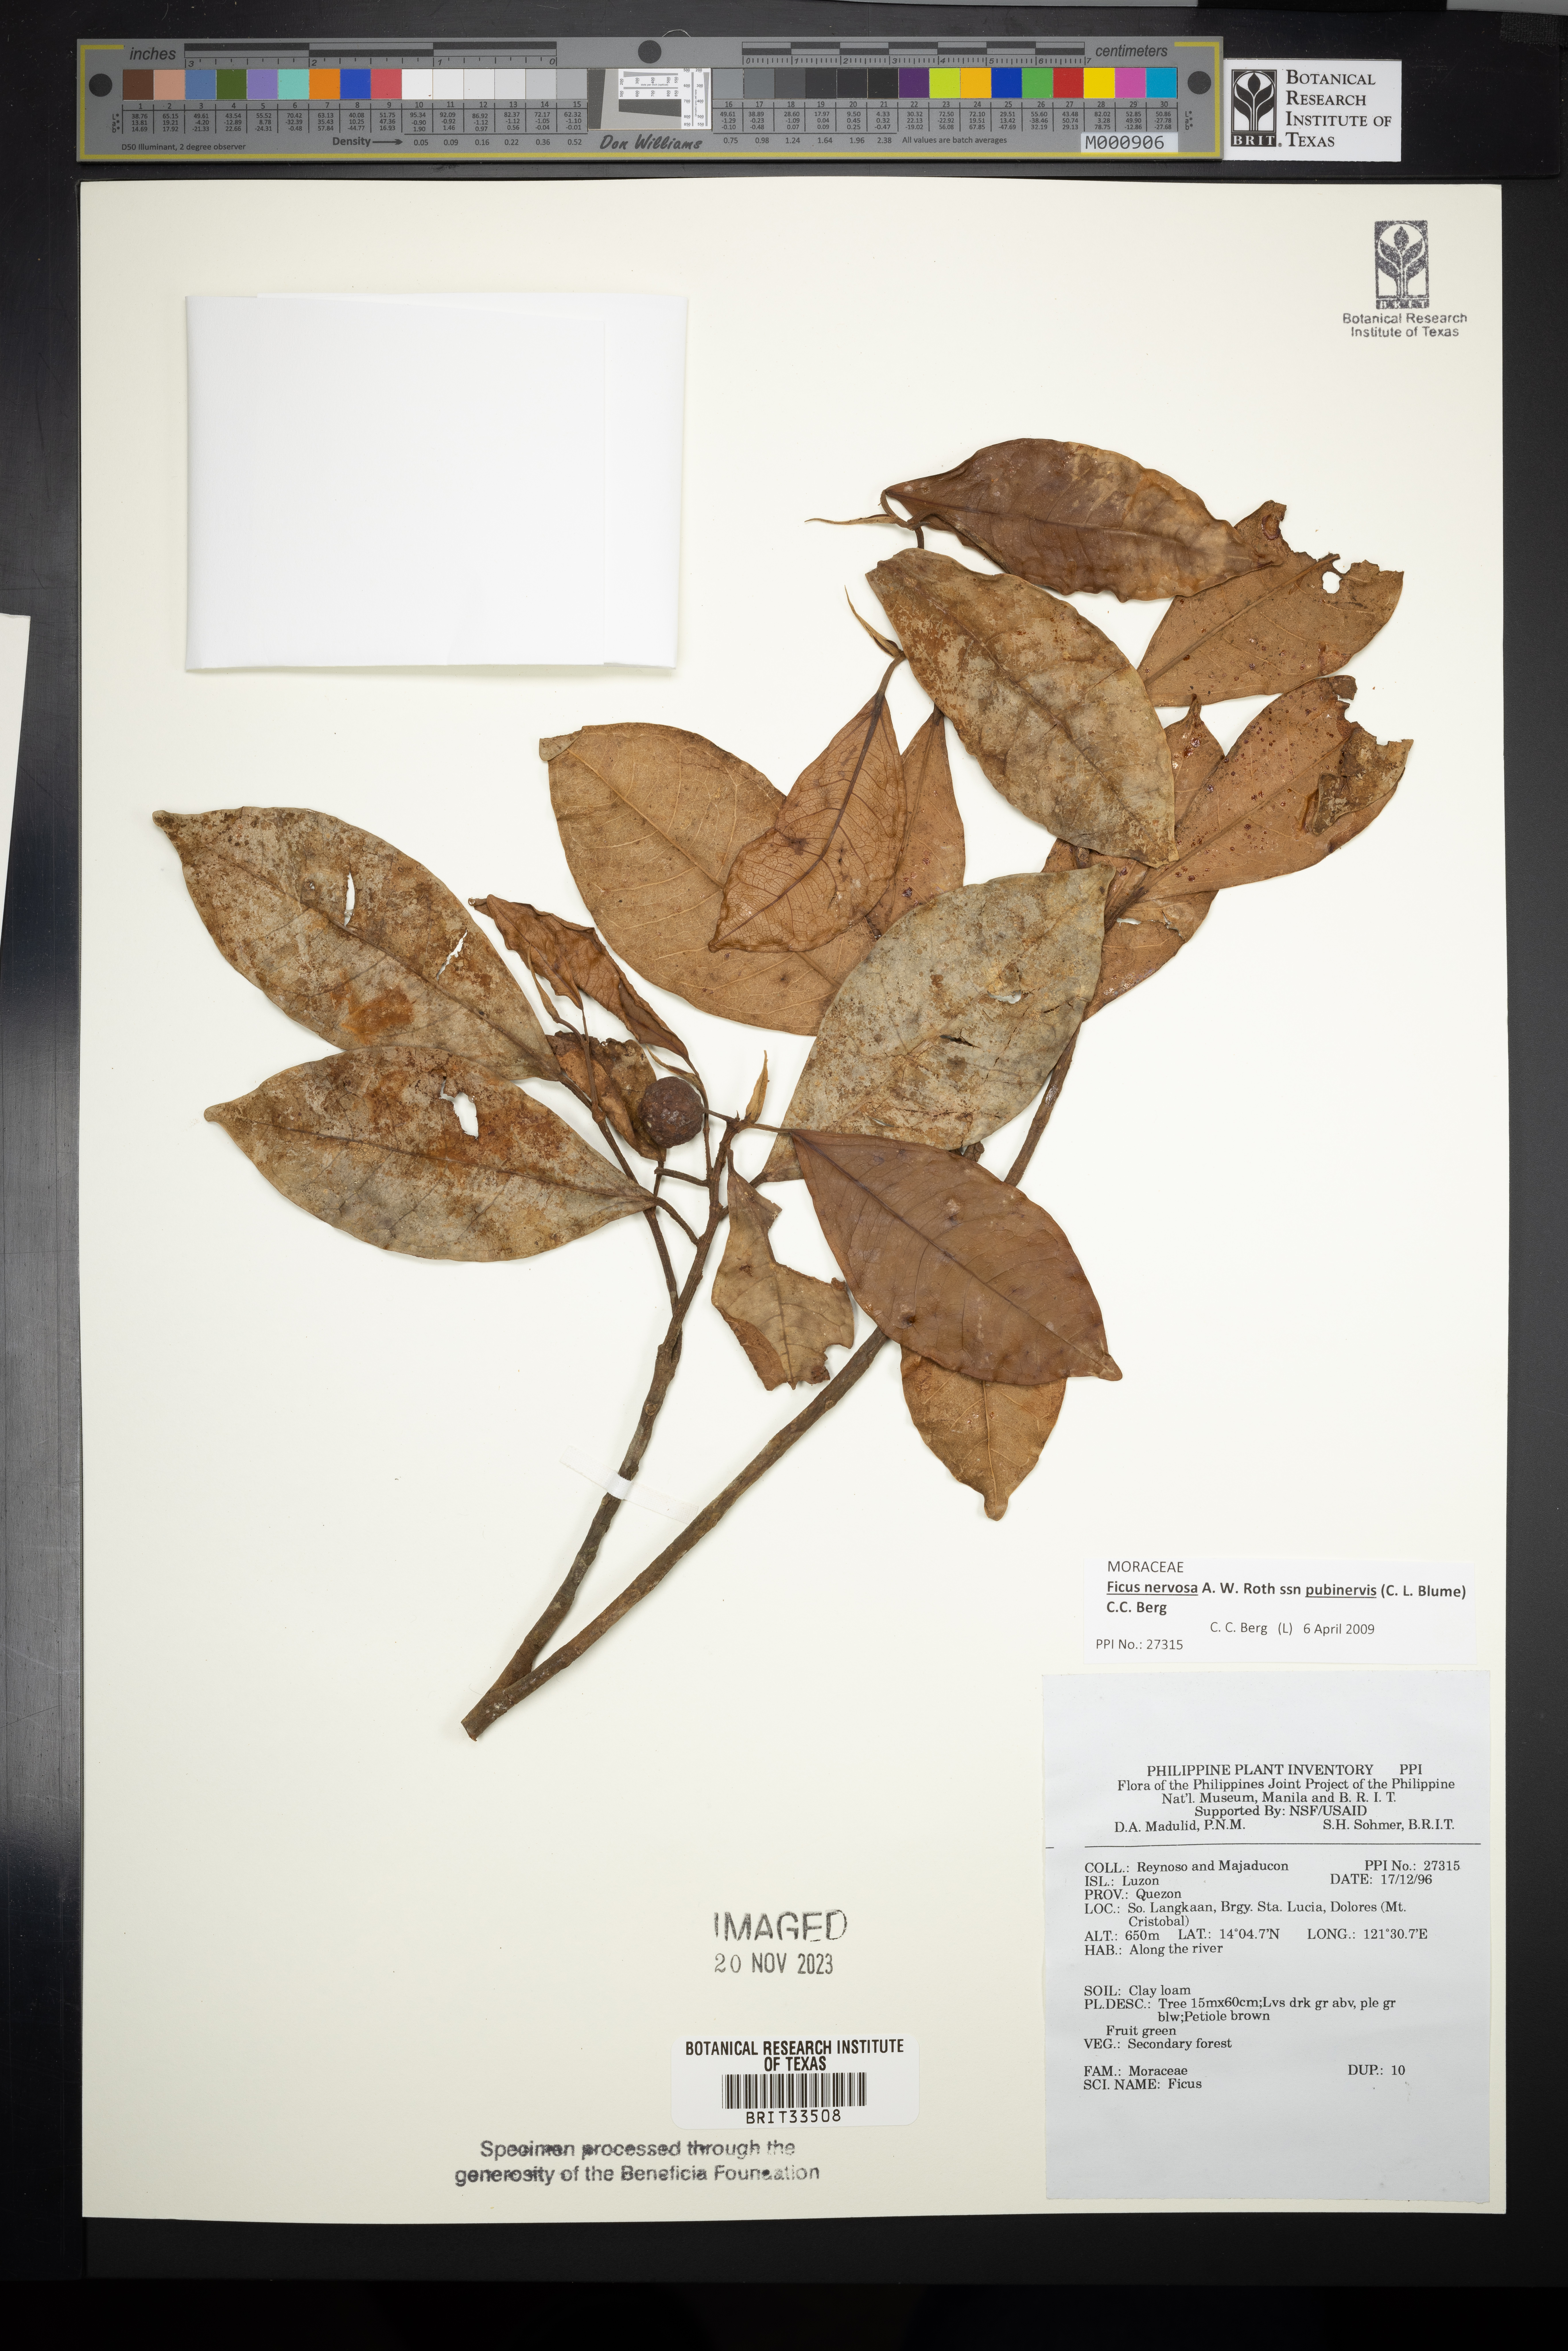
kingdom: Plantae
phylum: Tracheophyta
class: Magnoliopsida
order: Rosales
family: Moraceae
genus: Ficus
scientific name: Ficus
